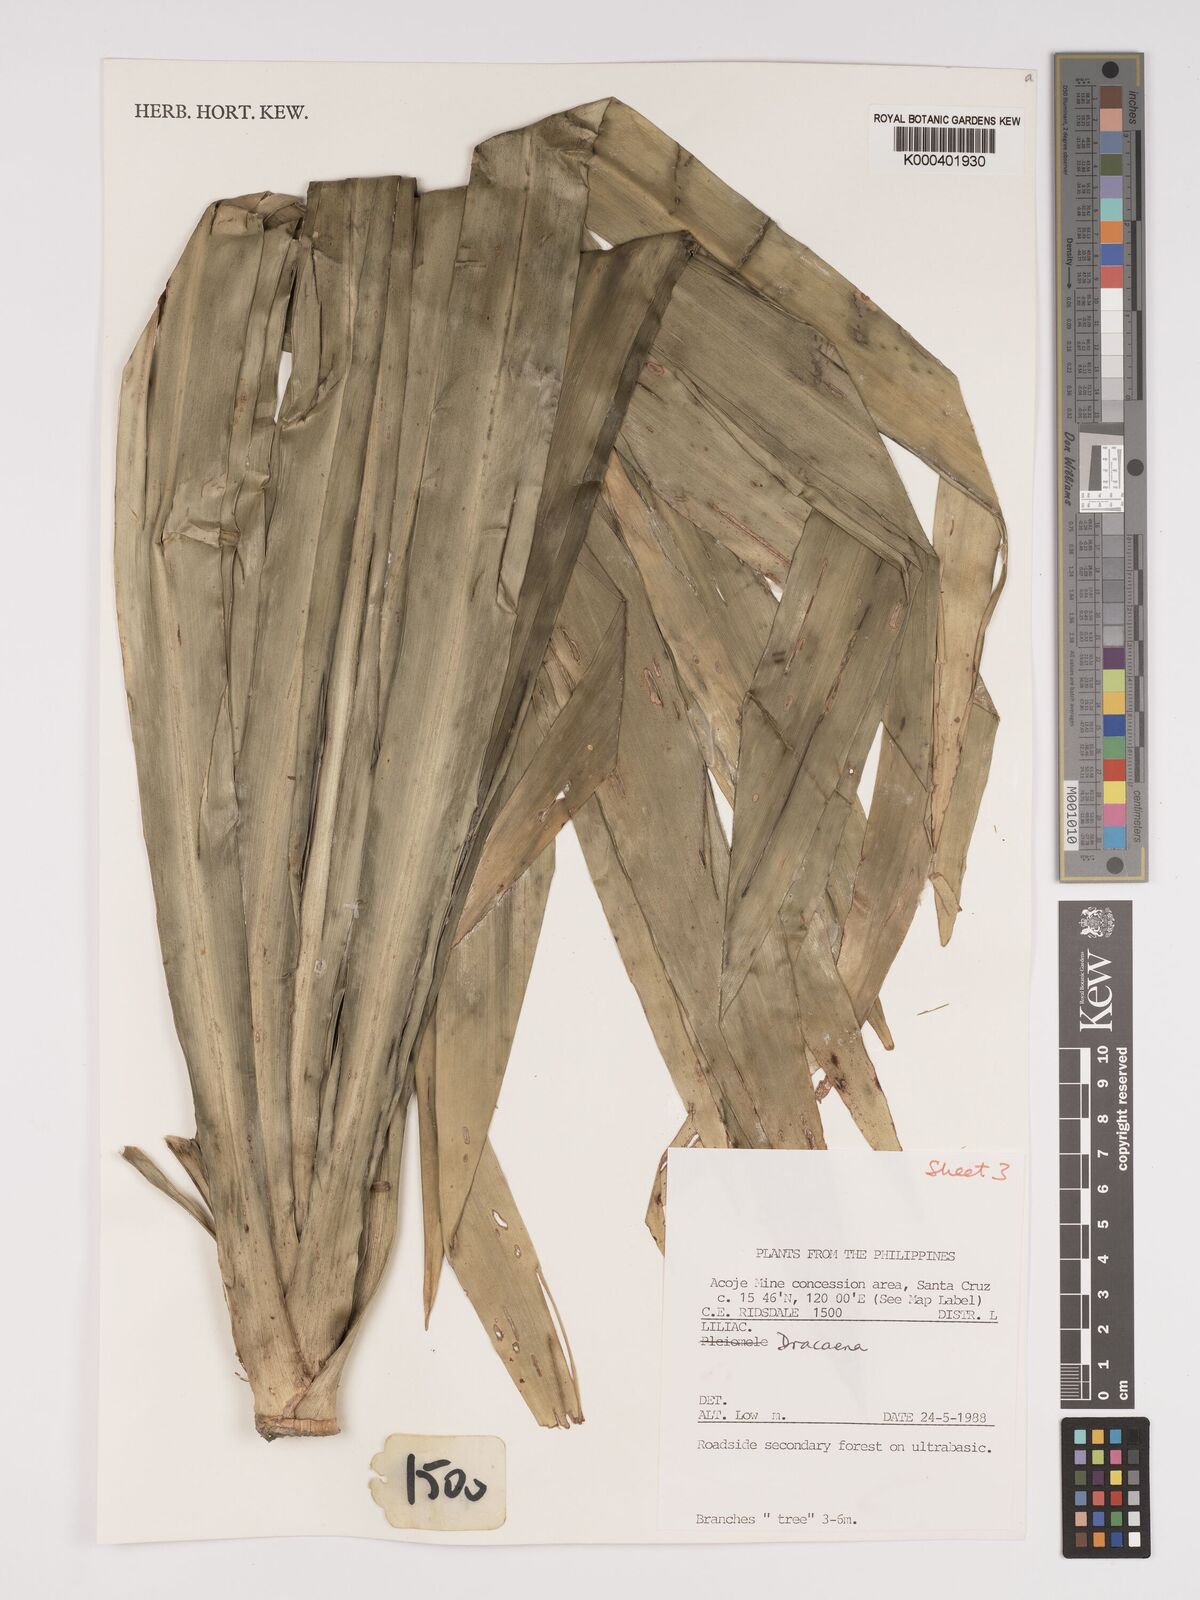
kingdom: Plantae
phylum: Tracheophyta
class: Liliopsida
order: Asparagales
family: Asparagaceae
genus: Dracaena
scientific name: Dracaena
